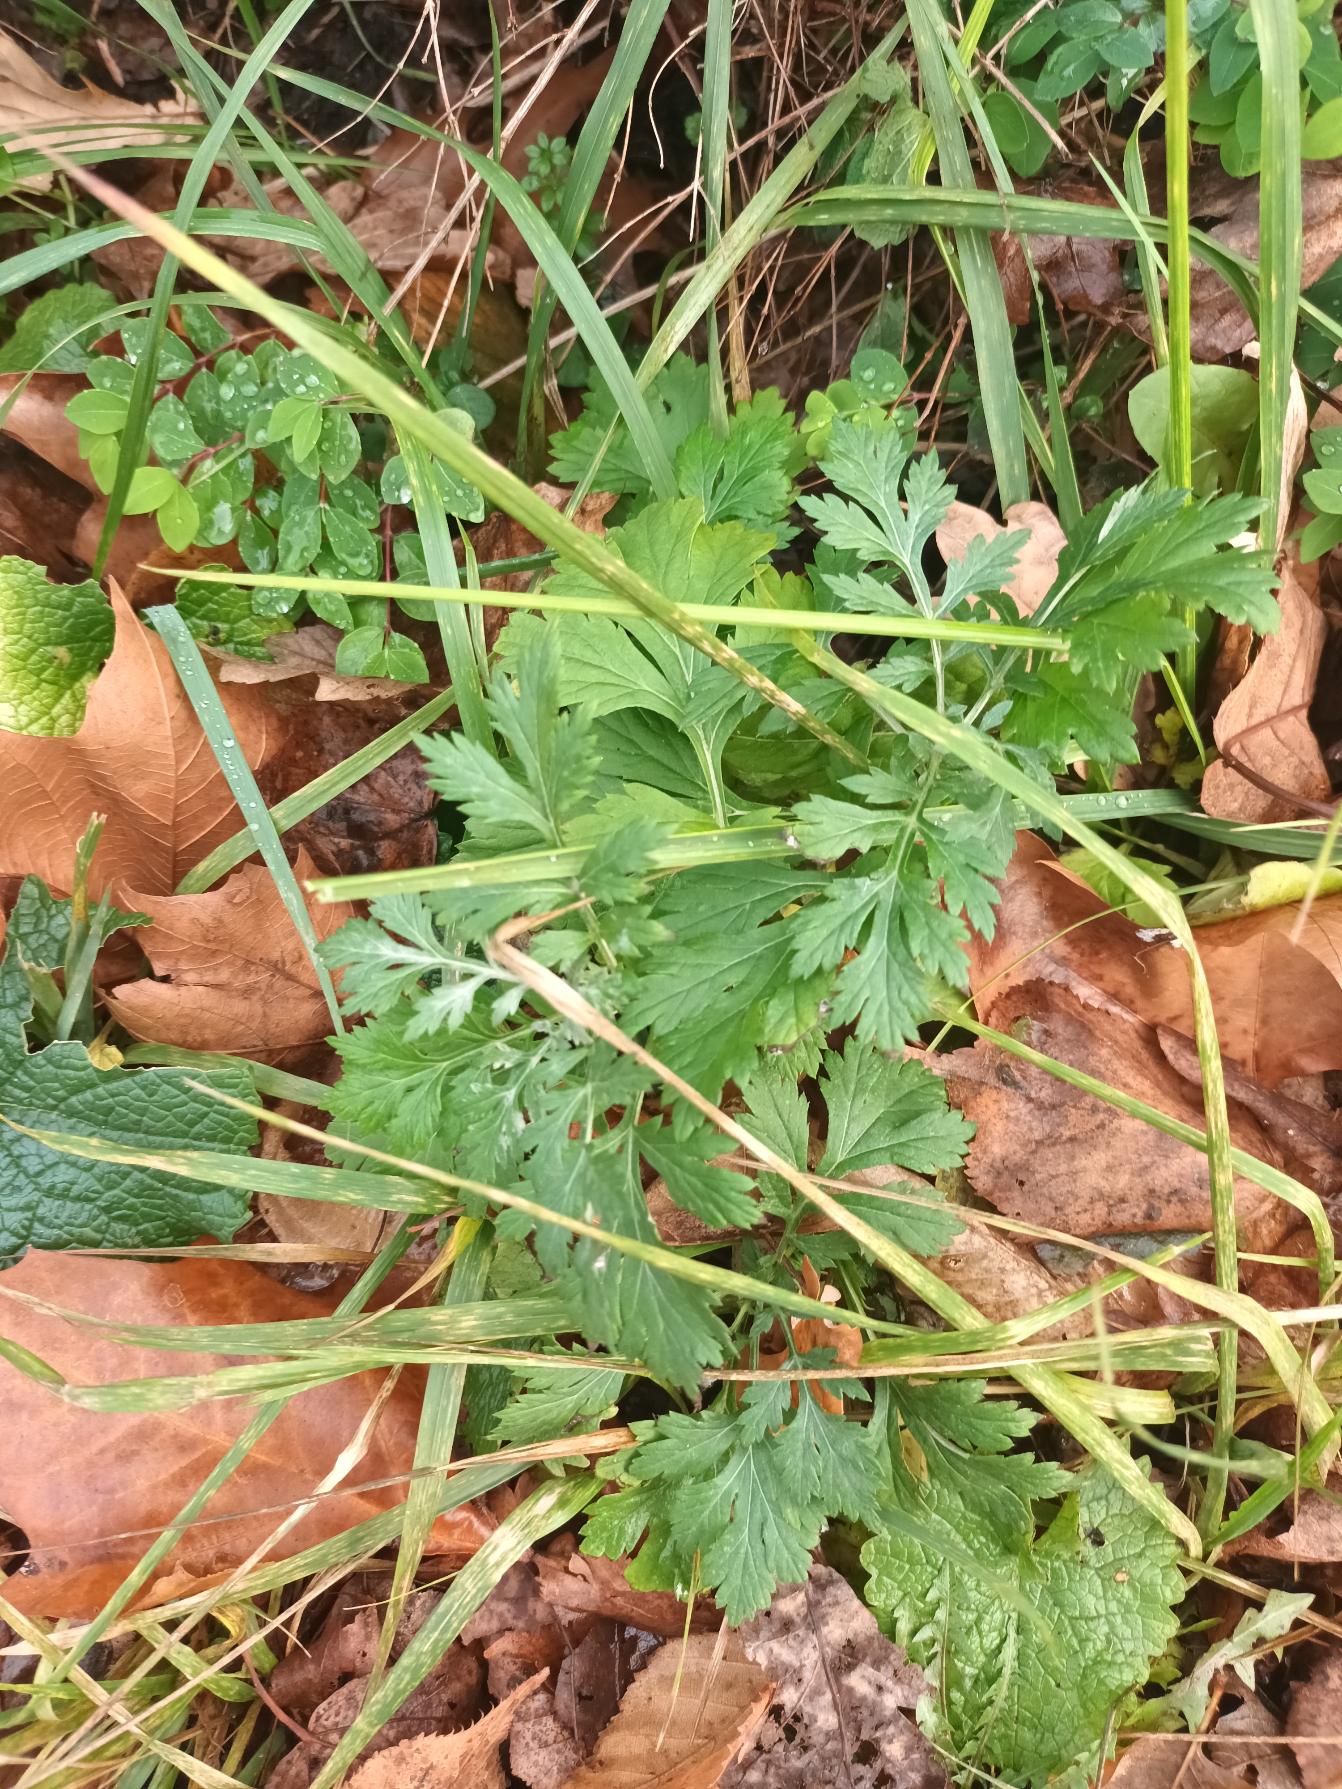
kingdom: Plantae
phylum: Tracheophyta
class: Magnoliopsida
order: Asterales
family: Asteraceae
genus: Artemisia
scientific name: Artemisia vulgaris
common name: Grå-bynke
